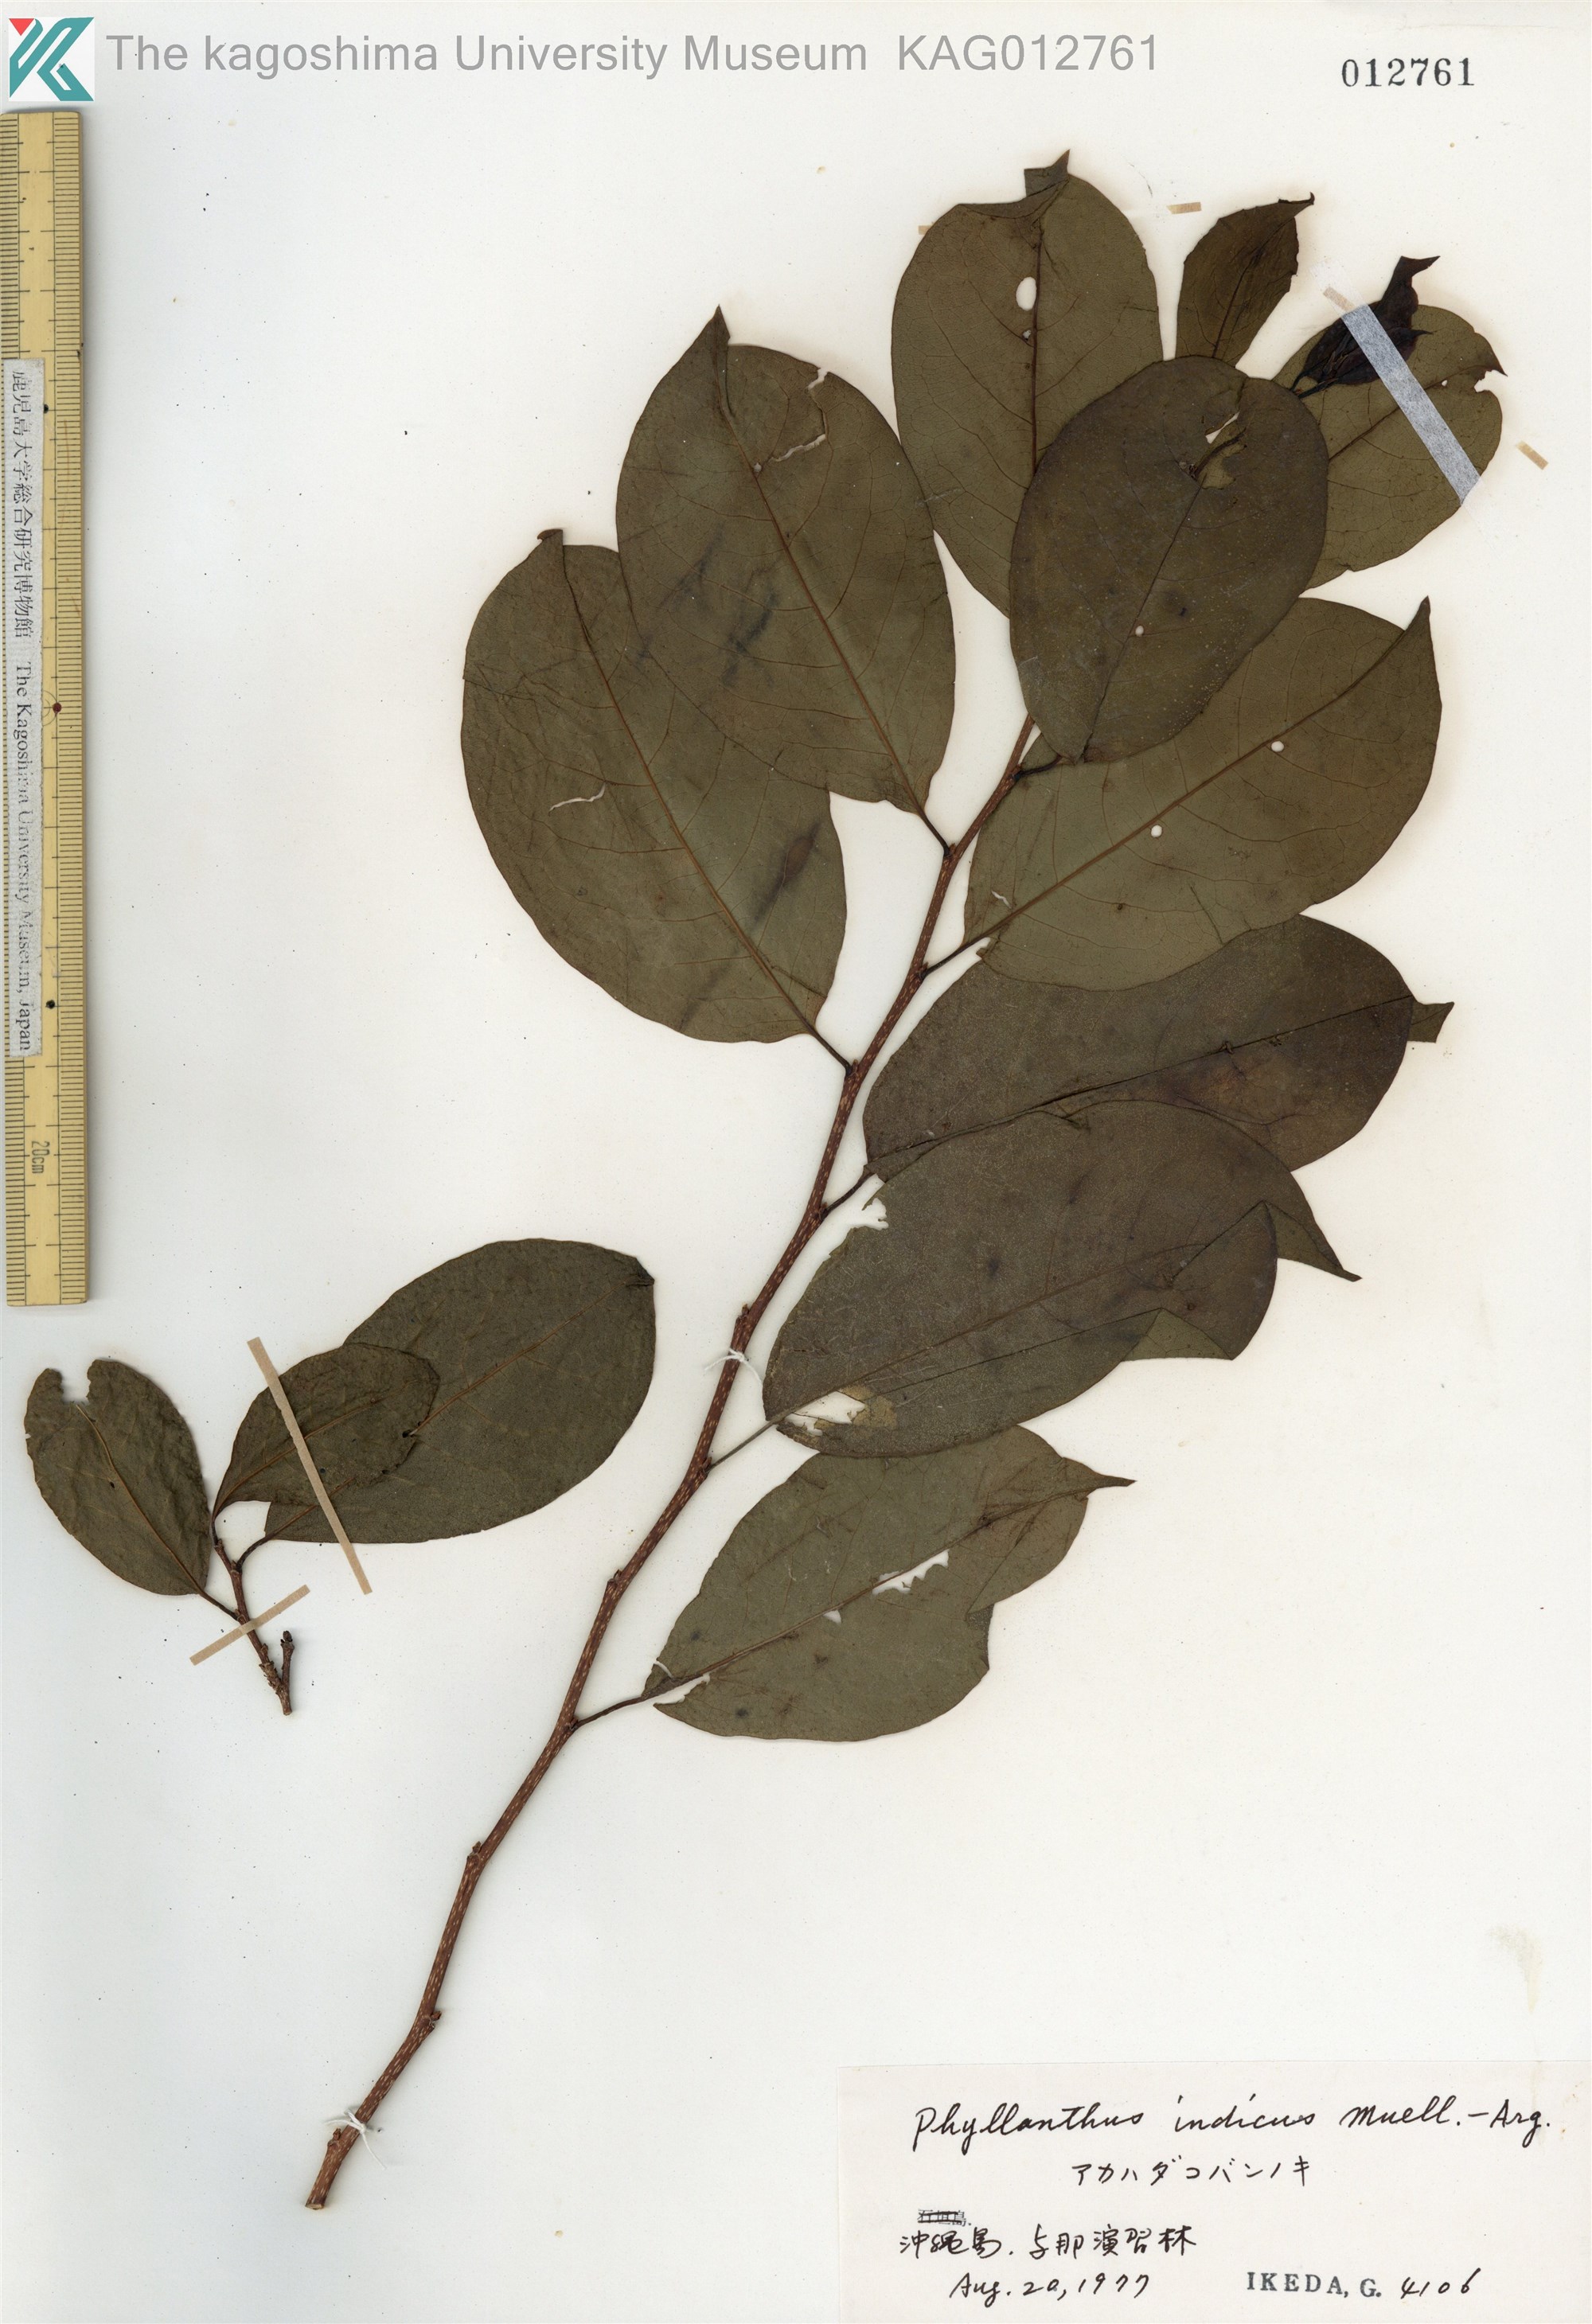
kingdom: Plantae
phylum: Tracheophyta
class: Magnoliopsida
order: Malpighiales
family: Phyllanthaceae
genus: Margaritaria
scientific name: Margaritaria indica
